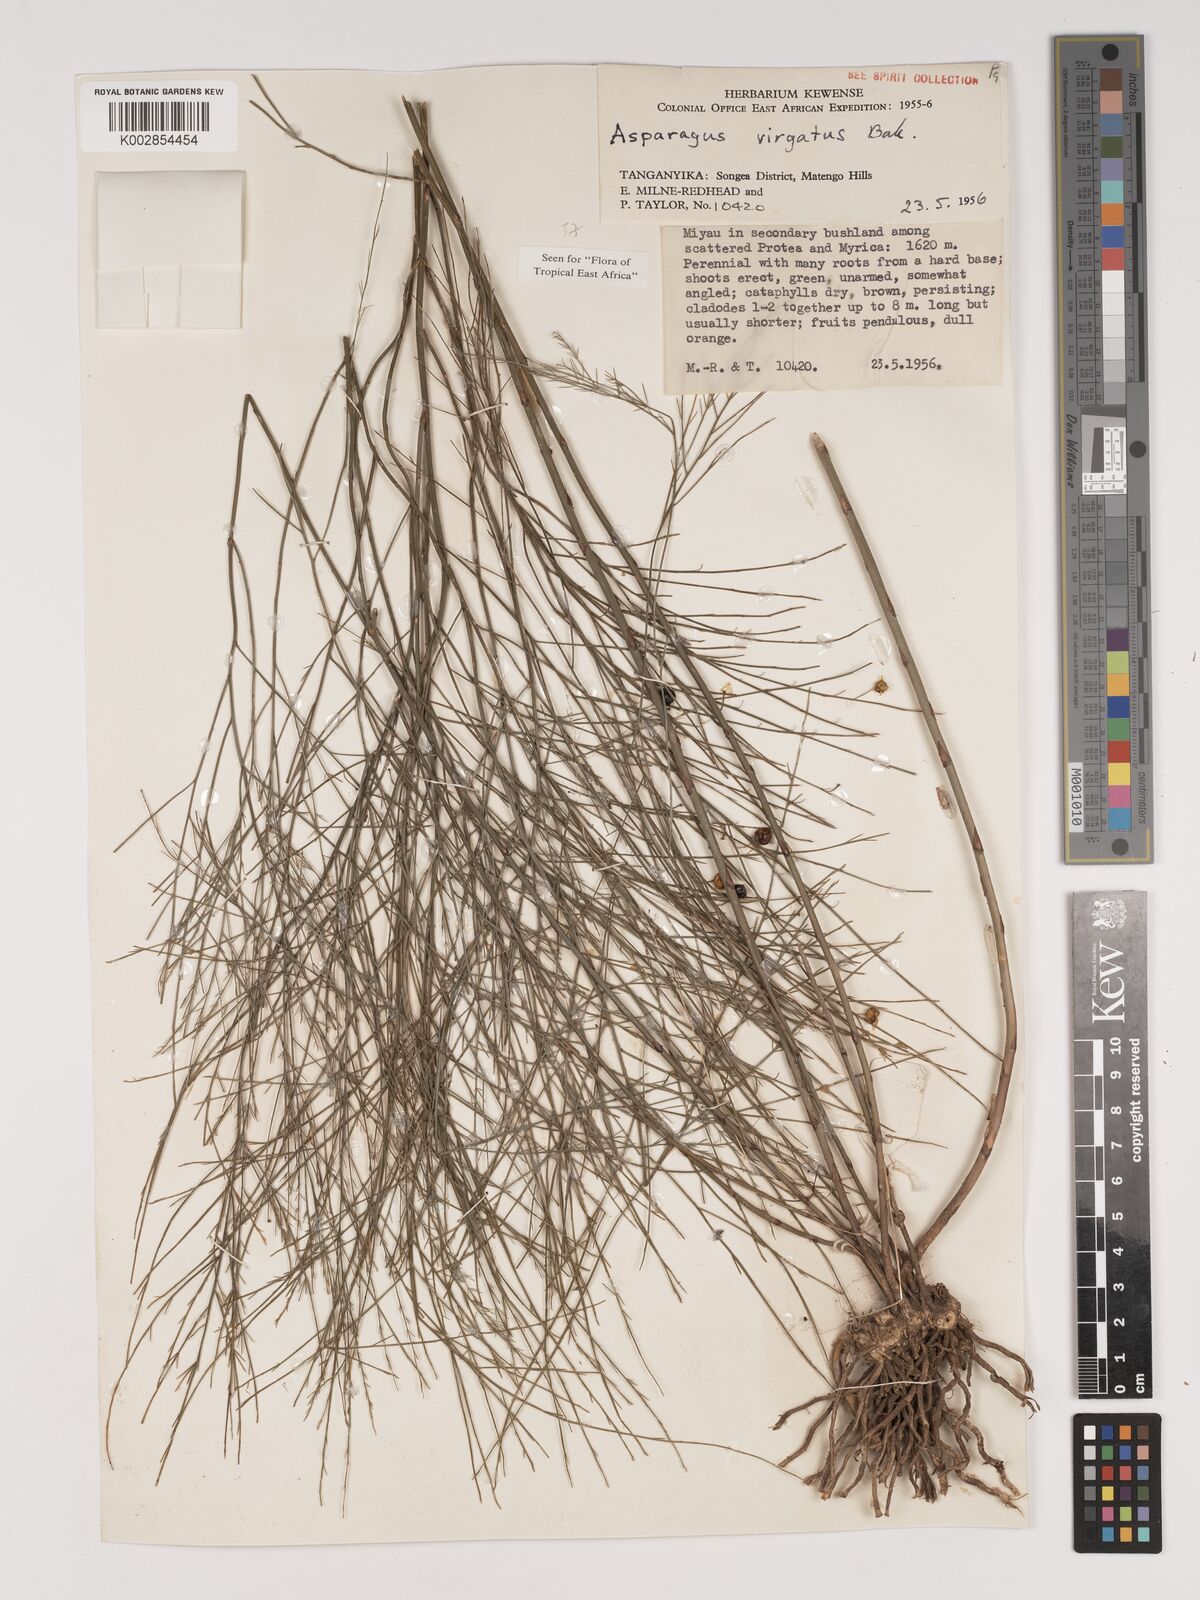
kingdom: Plantae
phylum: Tracheophyta
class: Liliopsida
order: Asparagales
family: Asparagaceae
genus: Asparagus
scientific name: Asparagus virgatus
